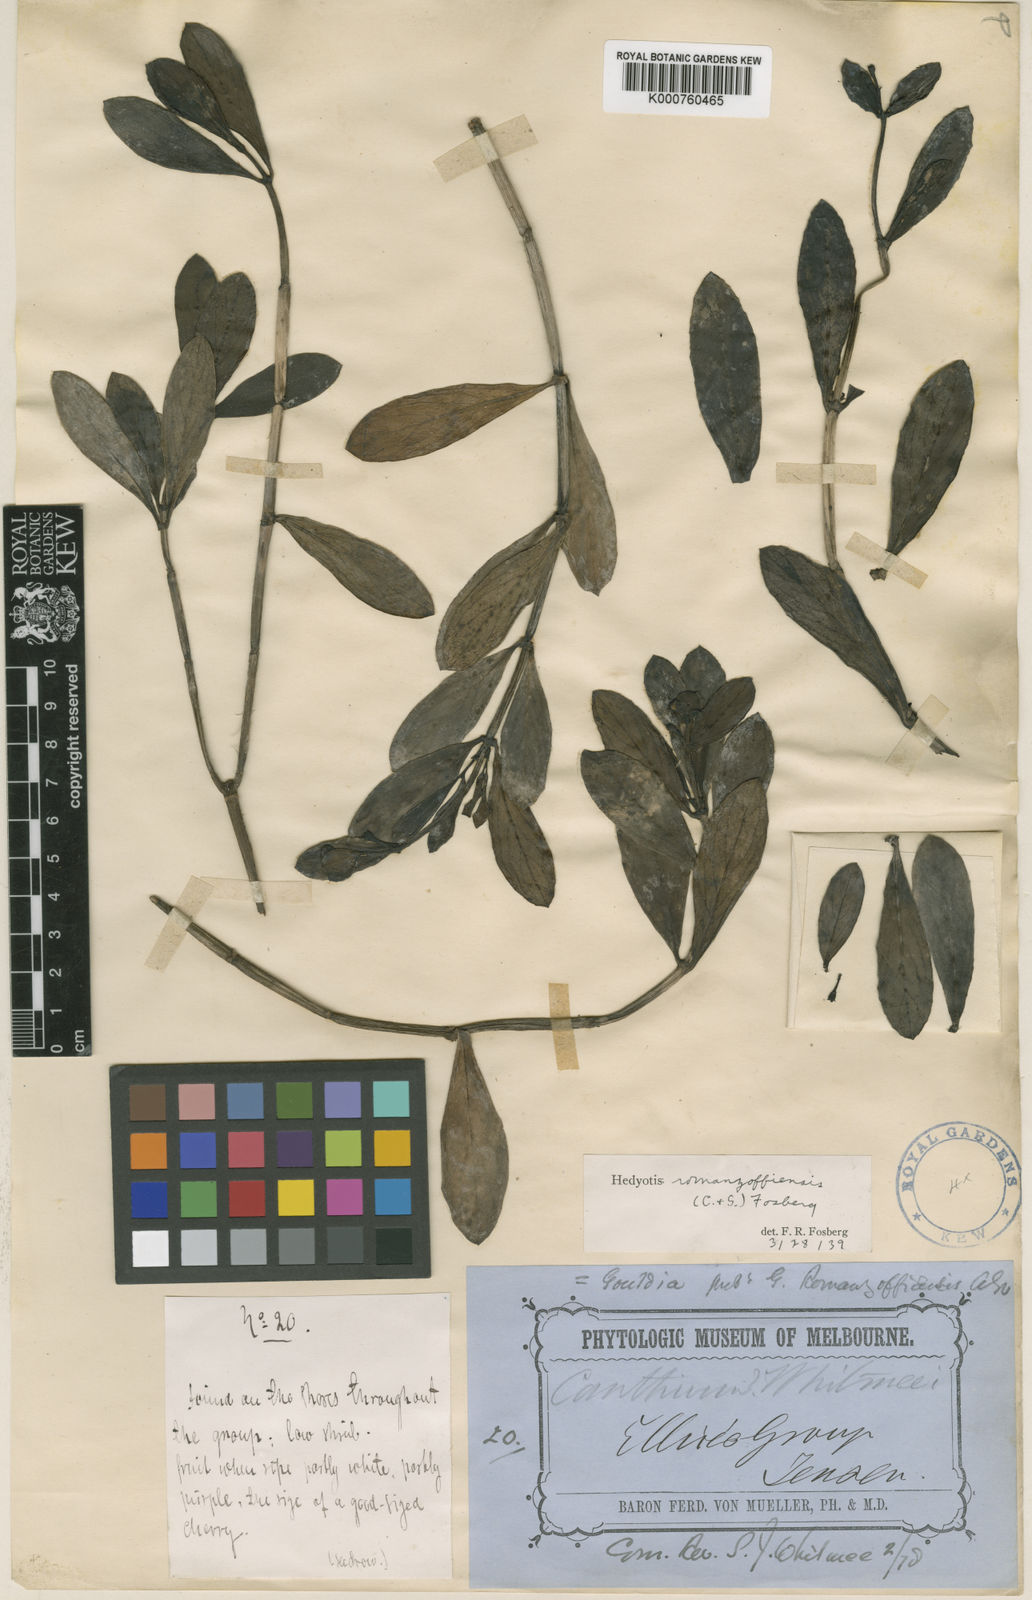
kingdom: Plantae
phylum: Tracheophyta
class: Magnoliopsida
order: Gentianales
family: Rubiaceae
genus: Kadua
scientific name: Kadua romanzoffiensis
